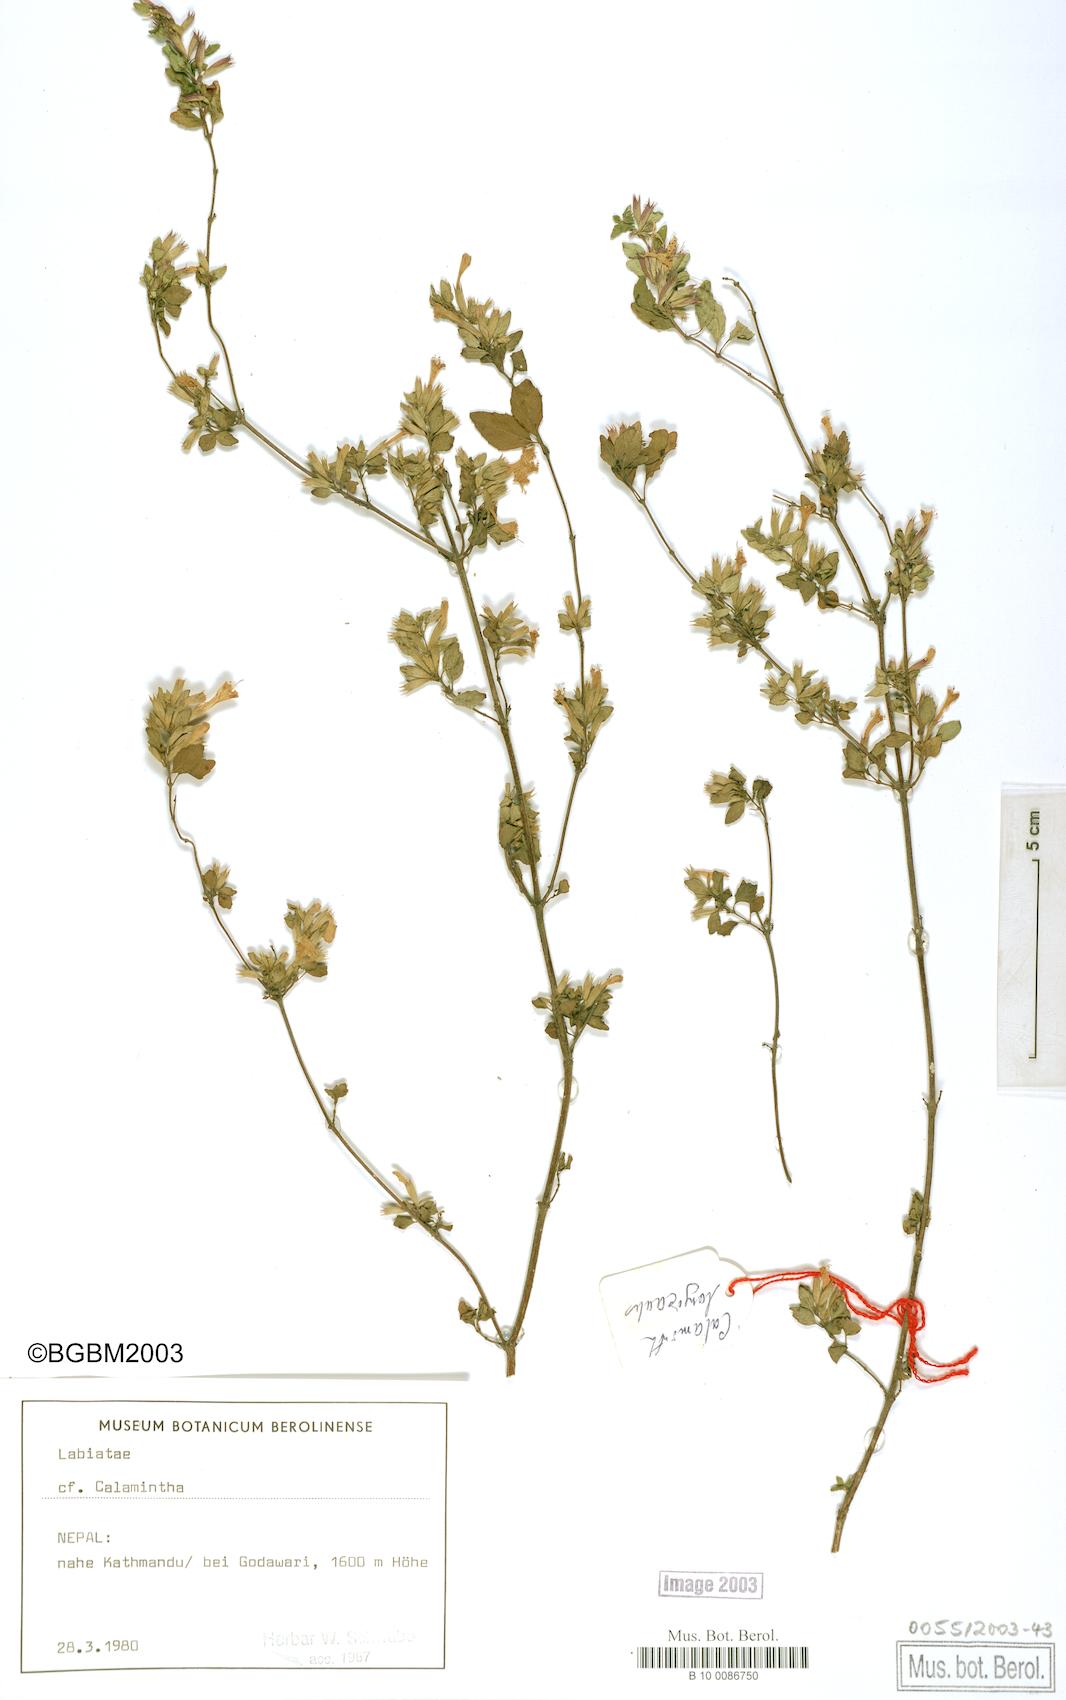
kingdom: Plantae
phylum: Tracheophyta
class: Magnoliopsida
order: Lamiales
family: Lamiaceae
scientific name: Lamiaceae
